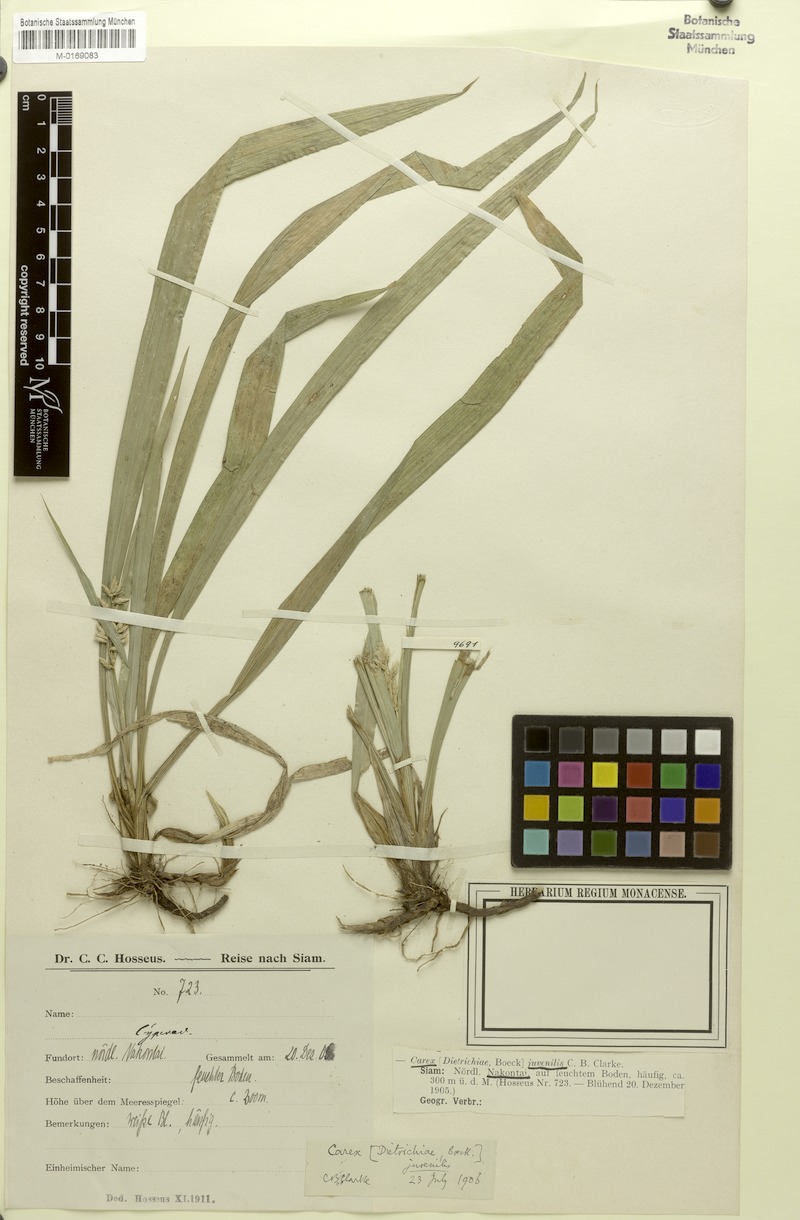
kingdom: Plantae
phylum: Tracheophyta
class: Liliopsida
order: Poales
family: Cyperaceae
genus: Carex
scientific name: Carex juvenilis
